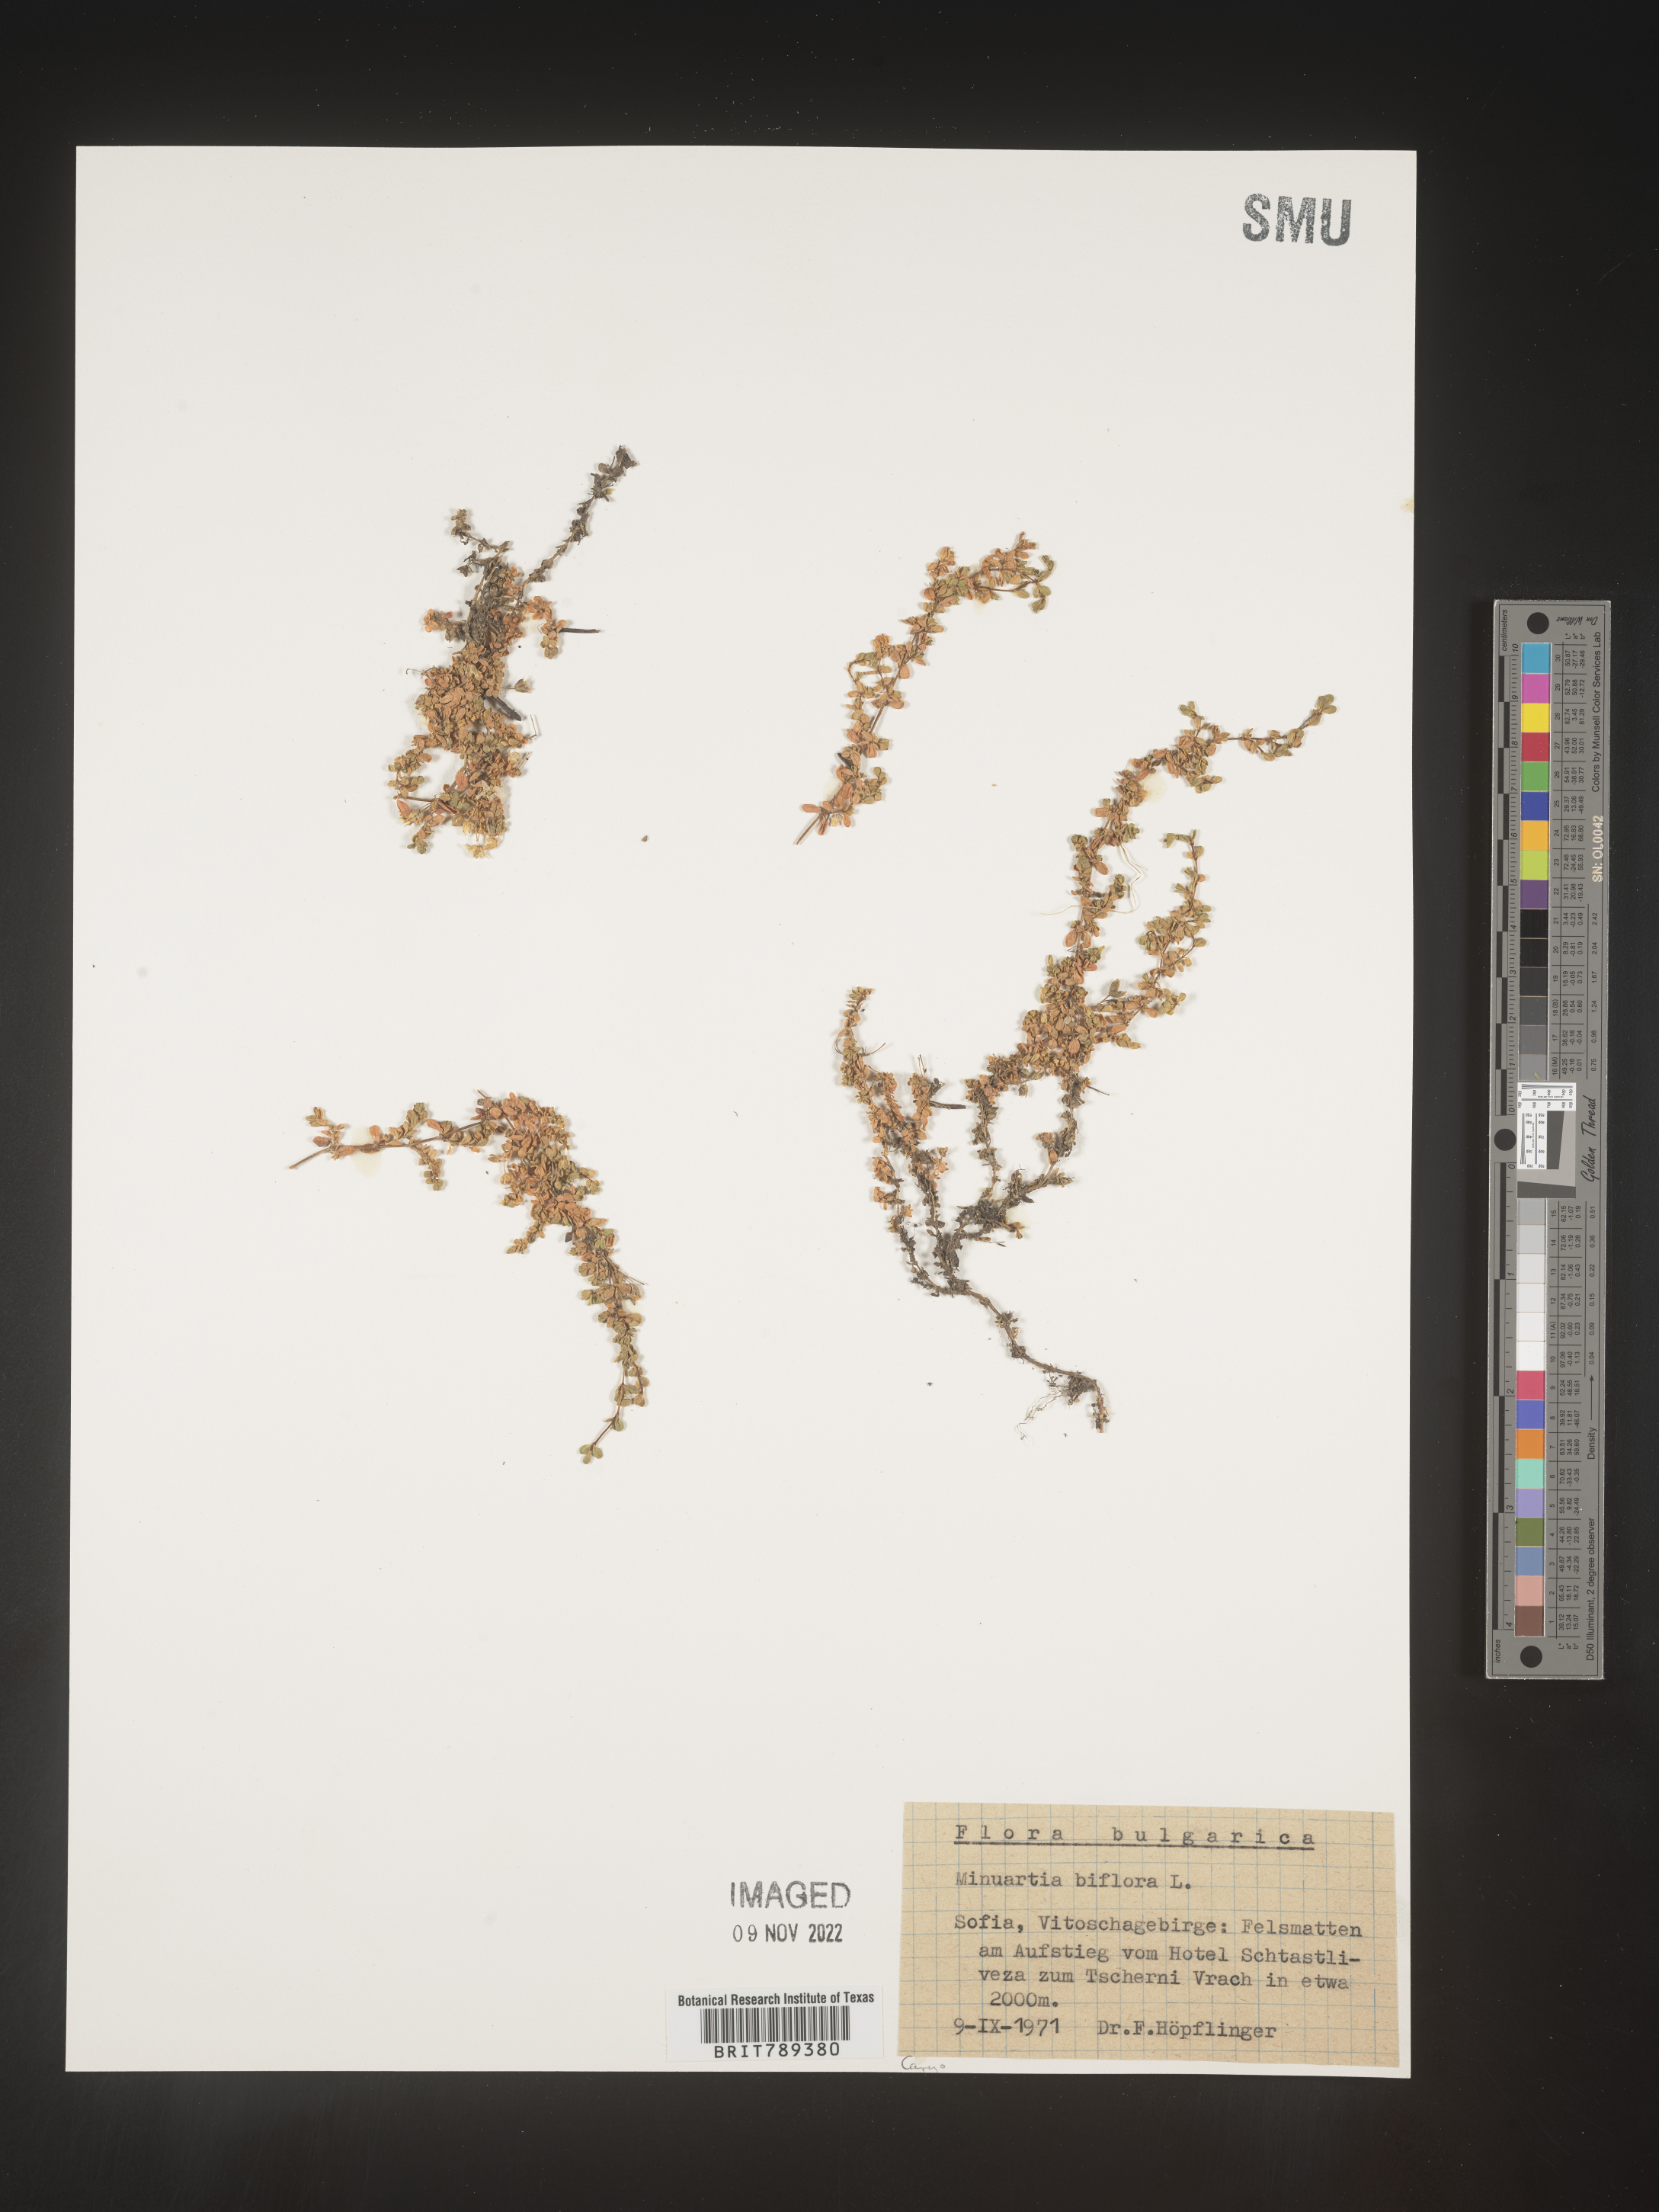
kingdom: Plantae
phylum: Tracheophyta
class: Magnoliopsida
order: Caryophyllales
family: Caryophyllaceae
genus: Arenaria
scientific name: Arenaria
